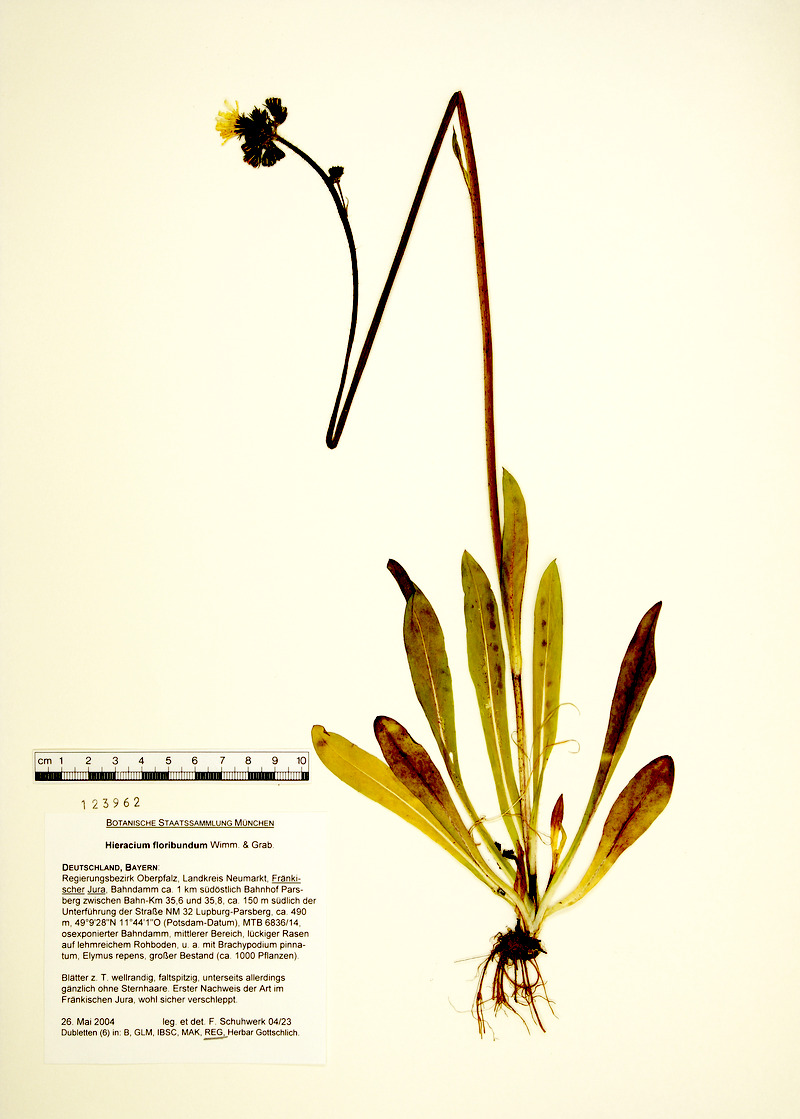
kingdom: Plantae
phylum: Tracheophyta
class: Magnoliopsida
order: Asterales
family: Asteraceae
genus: Pilosella
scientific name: Pilosella floribunda
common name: Glaucous hawkweed
